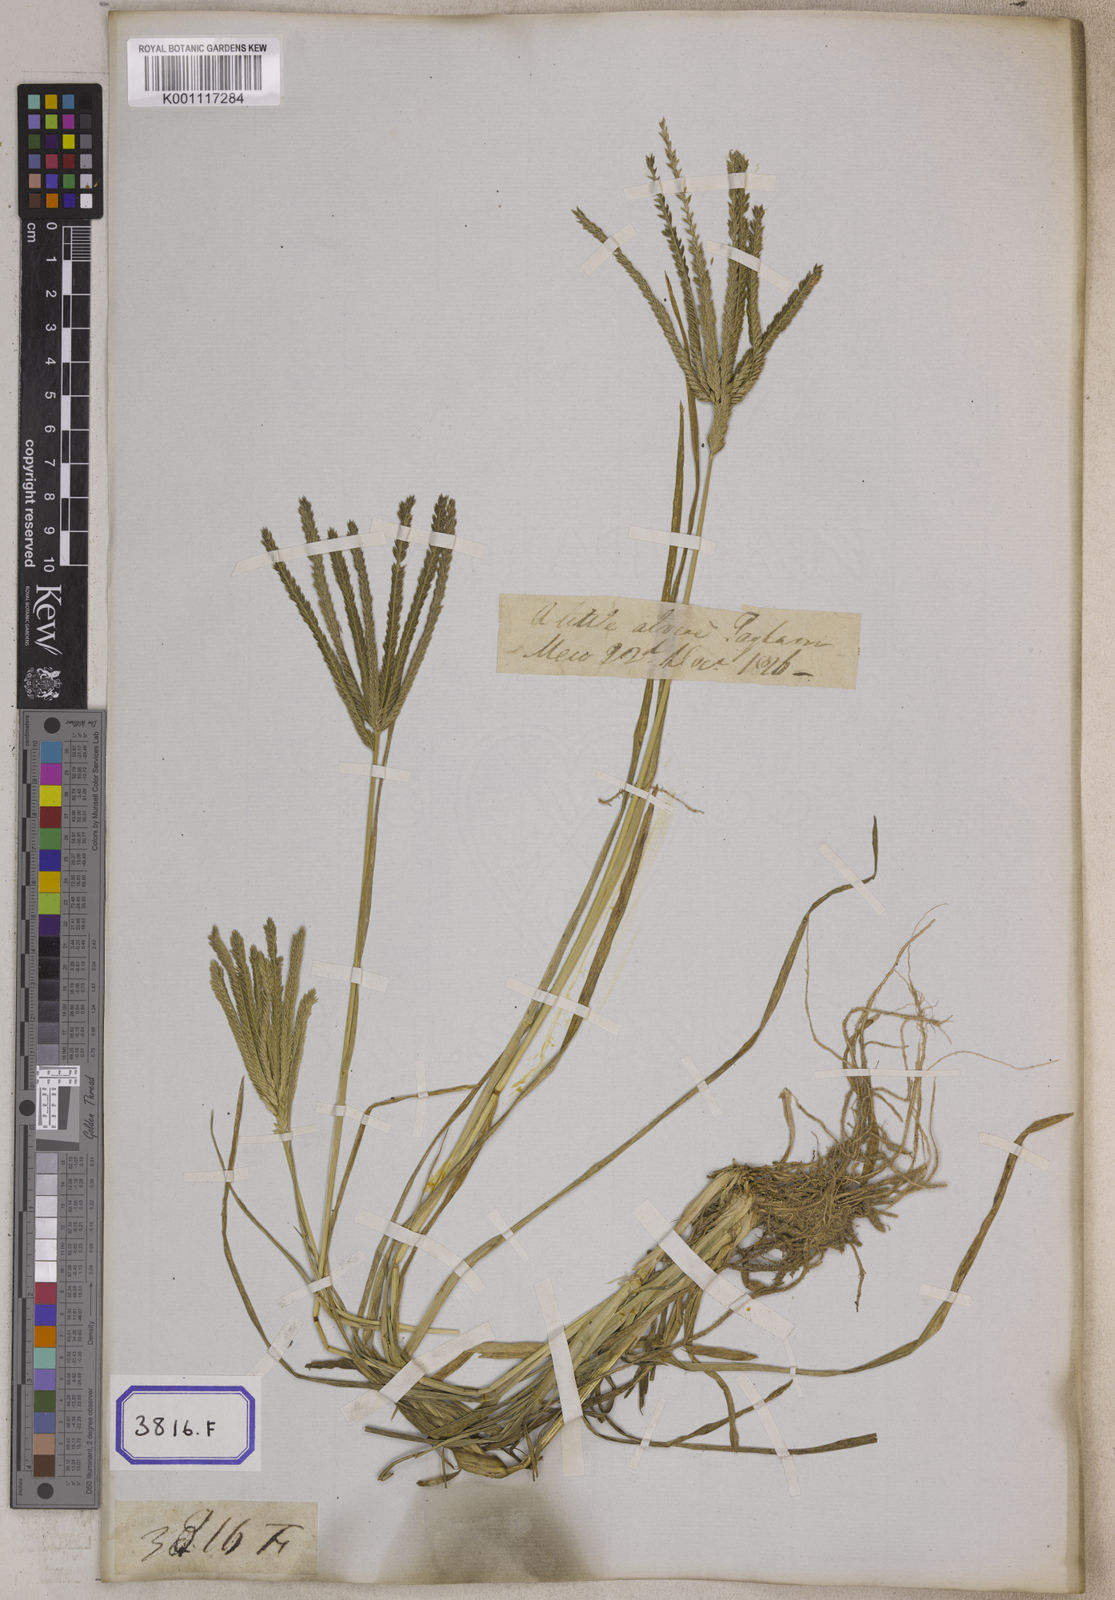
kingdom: Plantae
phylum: Tracheophyta
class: Liliopsida
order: Poales
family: Poaceae
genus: Eleusine
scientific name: Eleusine
